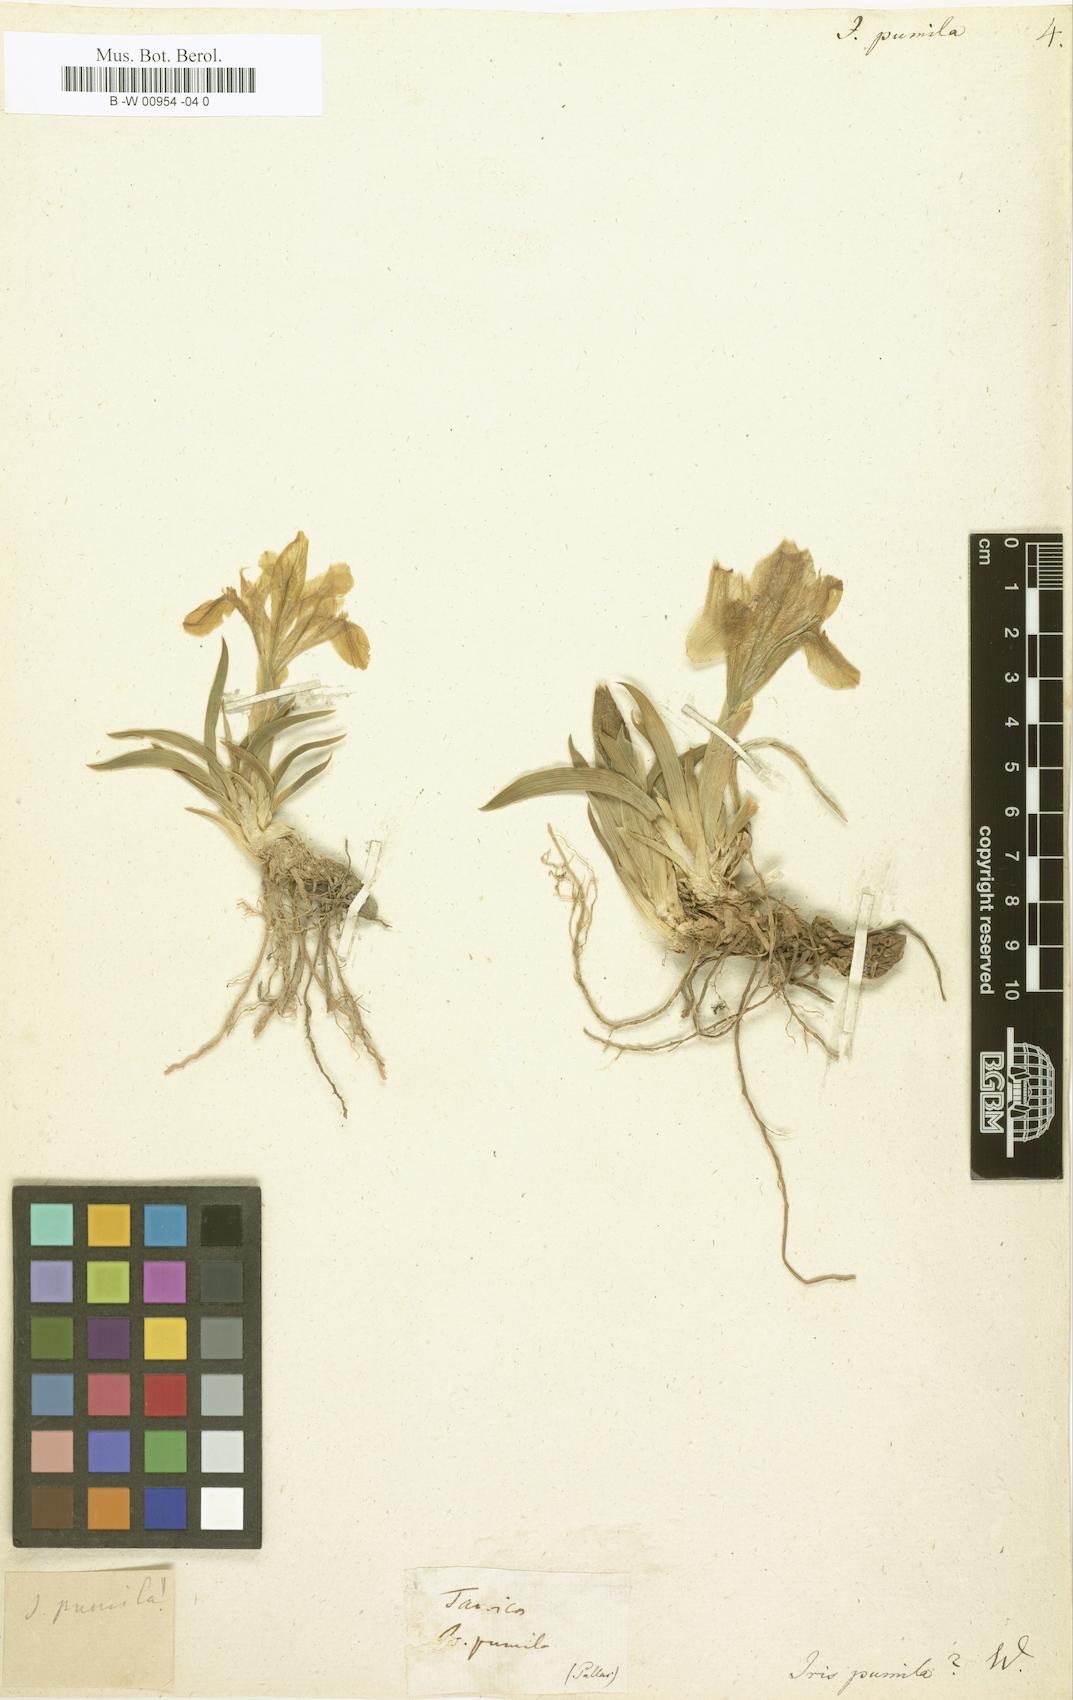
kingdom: Plantae
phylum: Tracheophyta
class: Liliopsida
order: Asparagales
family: Iridaceae
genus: Iris
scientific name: Iris pumila
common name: Dwarf iris
